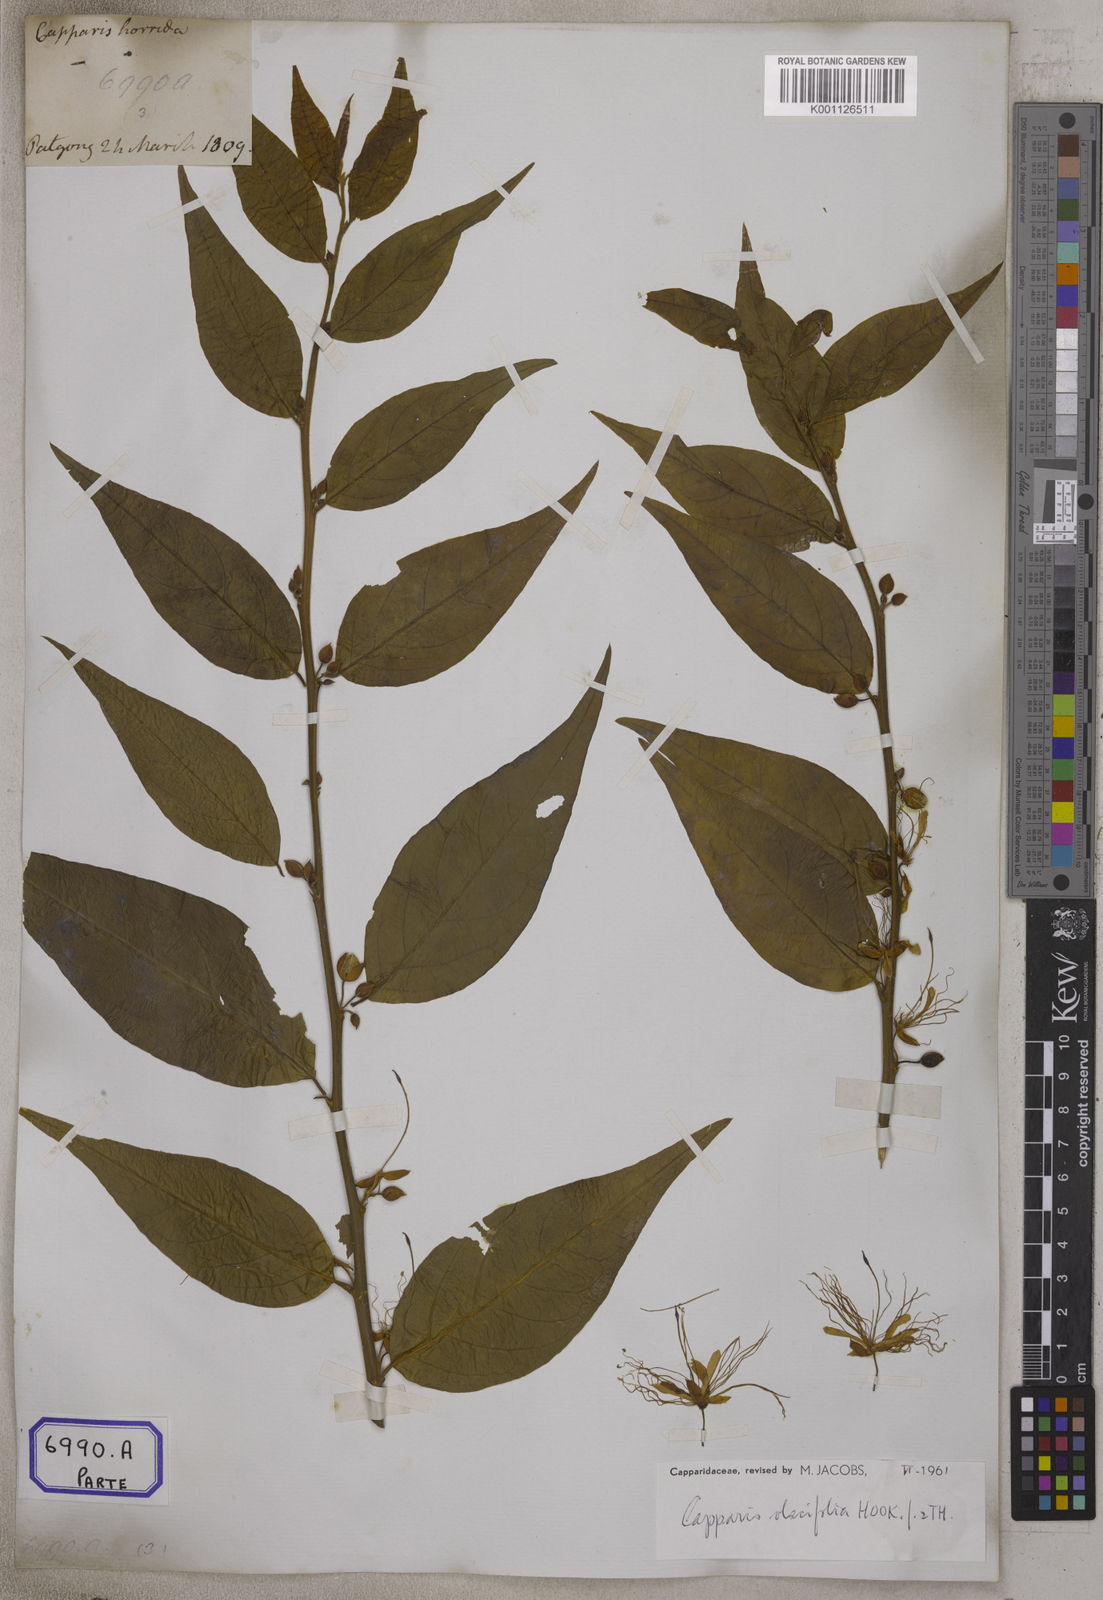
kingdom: Plantae
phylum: Tracheophyta
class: Magnoliopsida
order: Brassicales
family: Capparaceae
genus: Capparis
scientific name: Capparis
